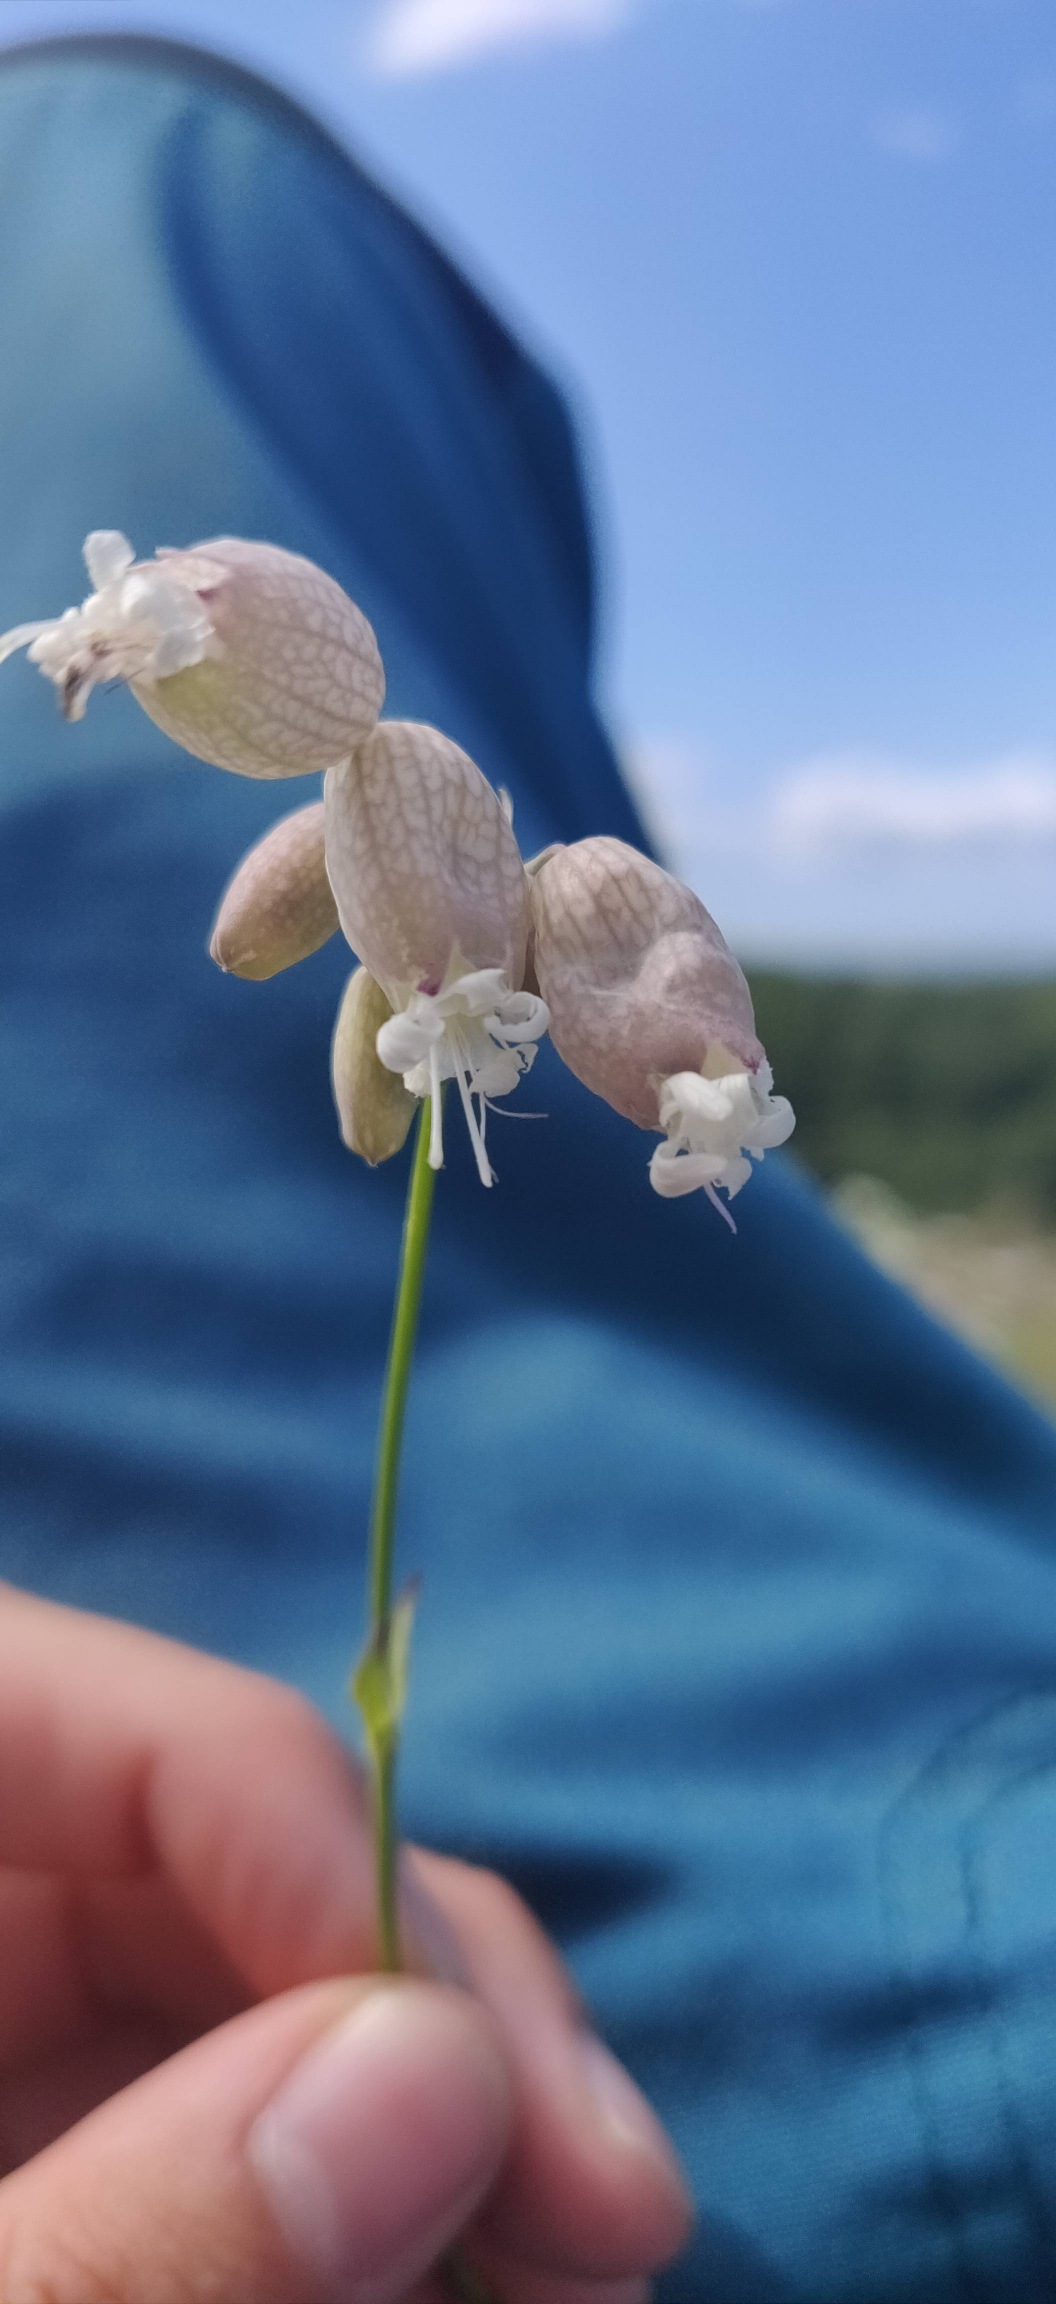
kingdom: Plantae
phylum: Tracheophyta
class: Magnoliopsida
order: Caryophyllales
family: Caryophyllaceae
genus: Silene
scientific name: Silene vulgaris
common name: Blæresmælde
